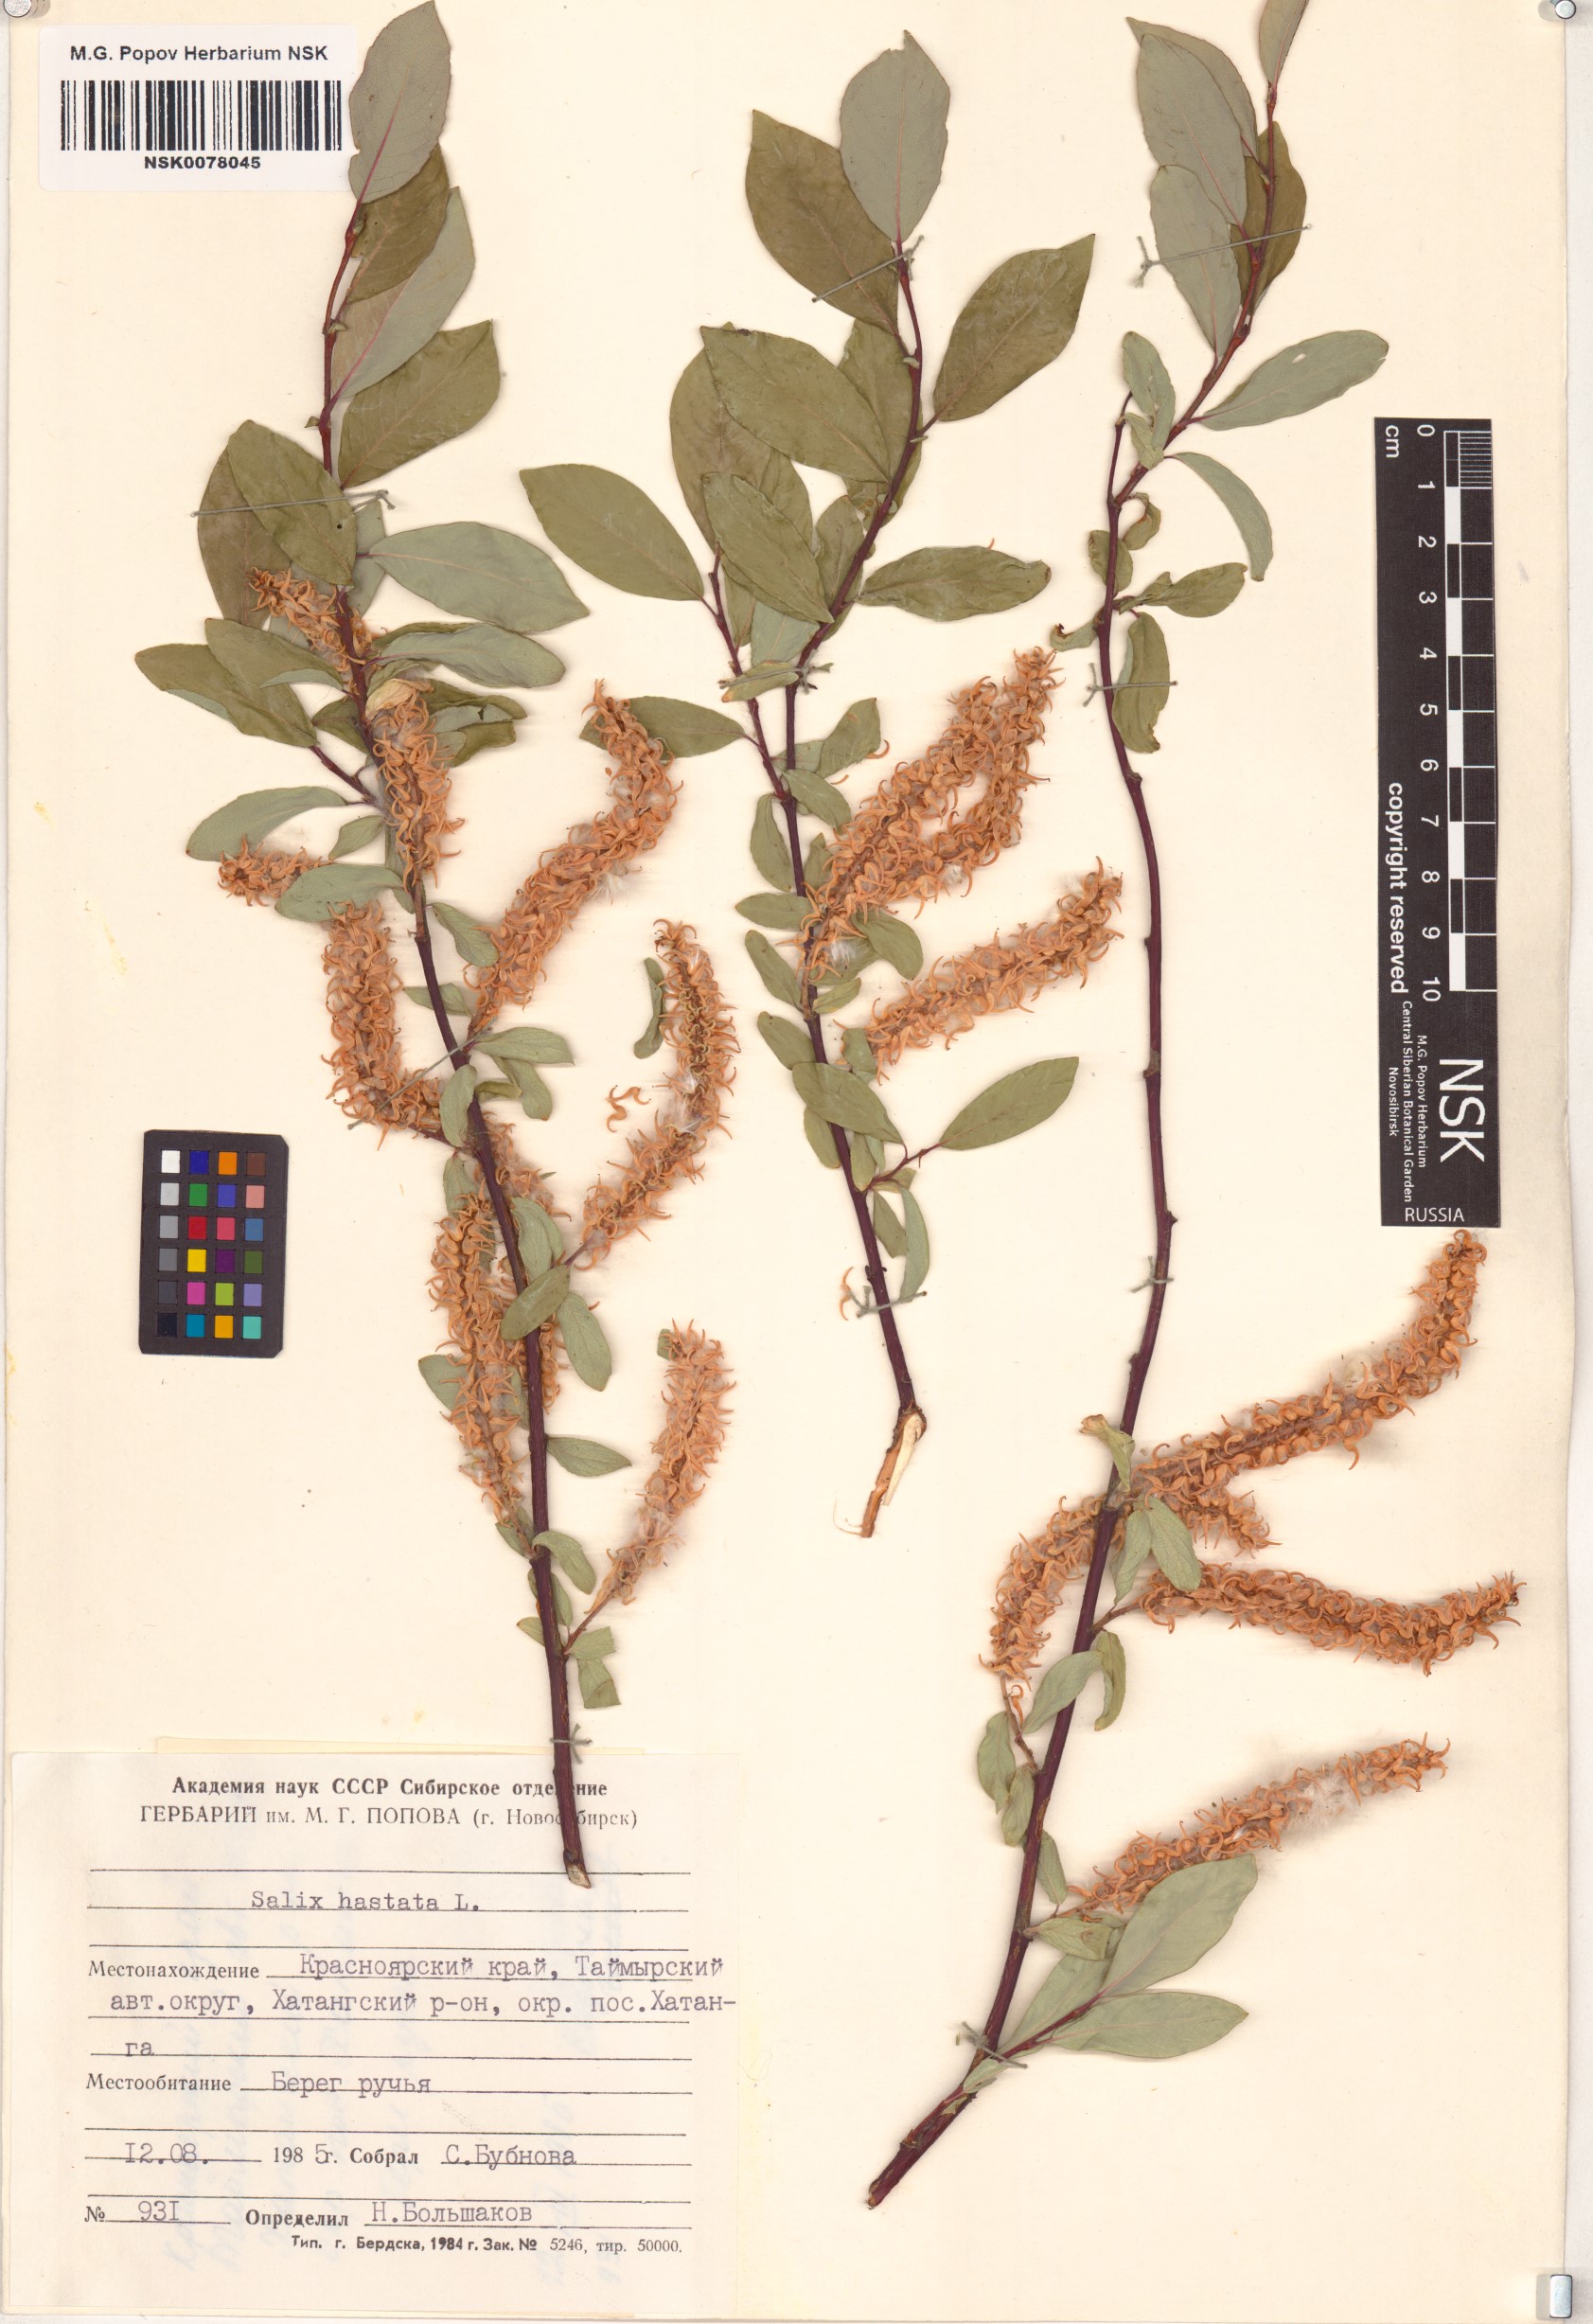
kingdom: Plantae
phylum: Tracheophyta
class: Magnoliopsida
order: Malpighiales
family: Salicaceae
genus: Salix
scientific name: Salix hastata
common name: Halberd willow
